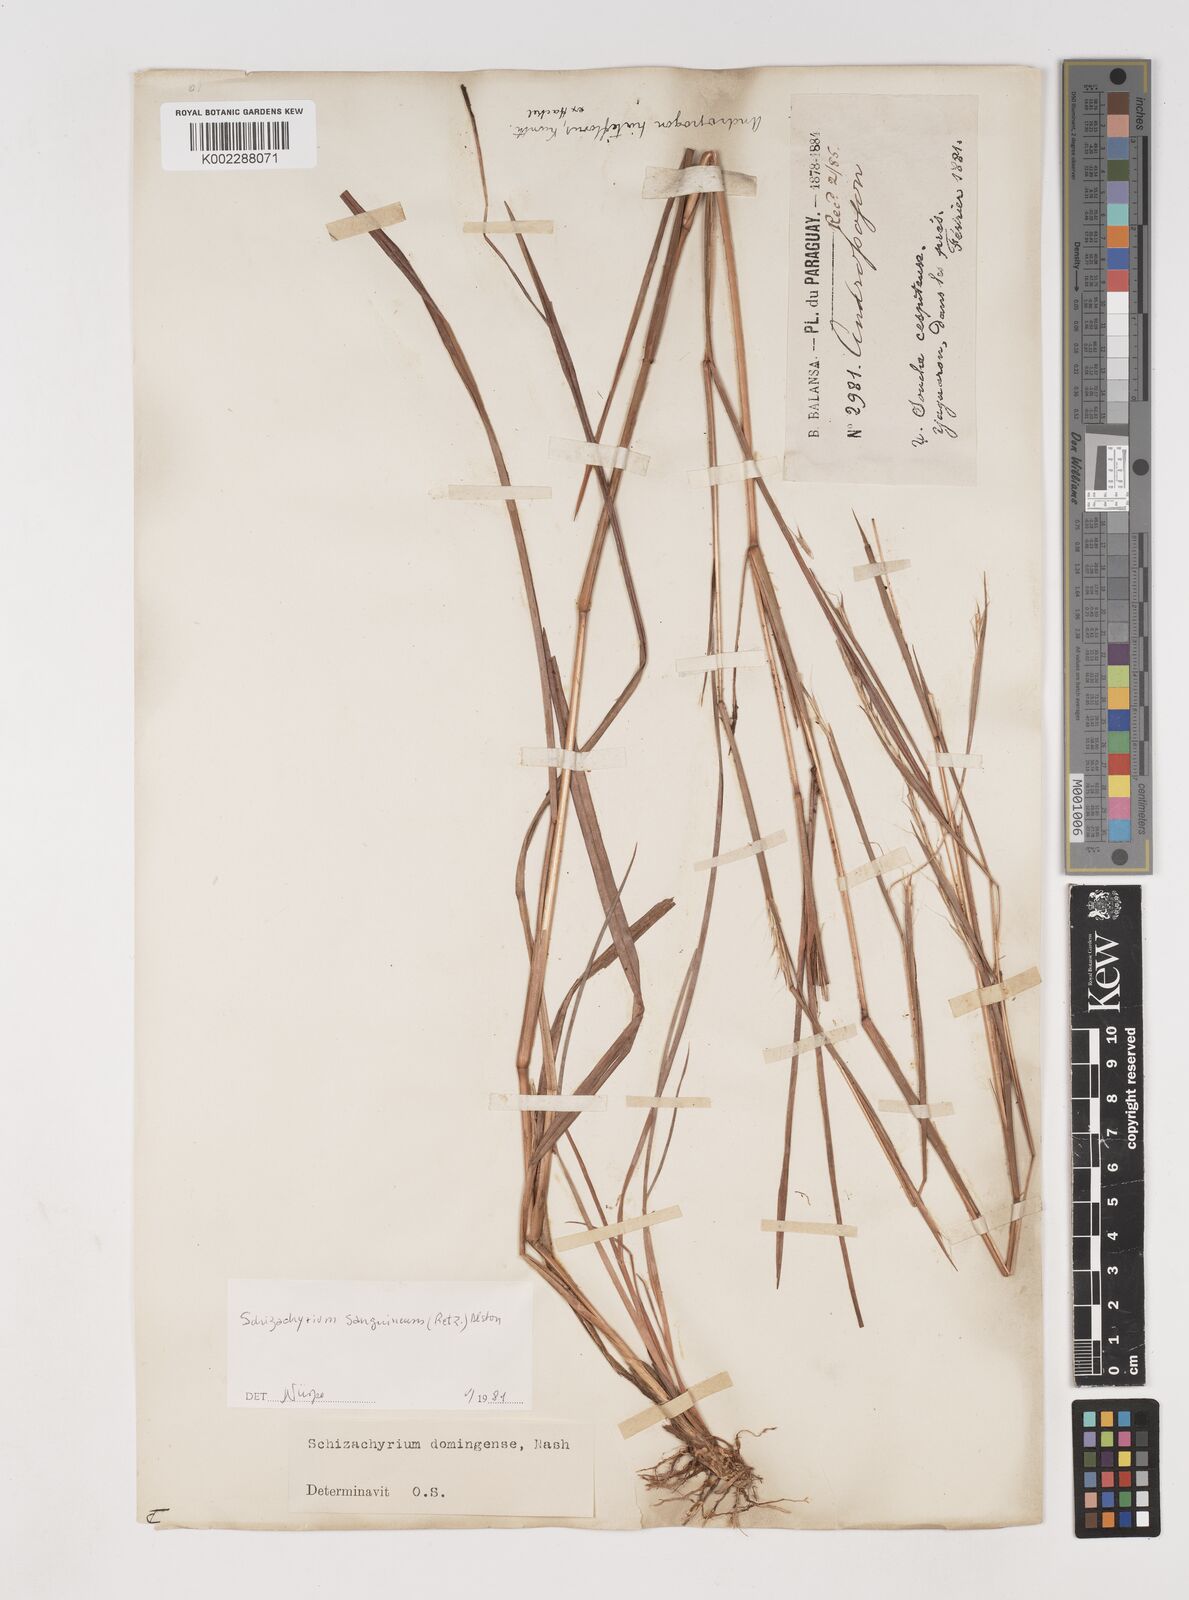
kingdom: Plantae
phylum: Tracheophyta
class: Liliopsida
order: Poales
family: Poaceae
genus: Schizachyrium
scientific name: Schizachyrium sanguineum
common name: Crimson bluestem
